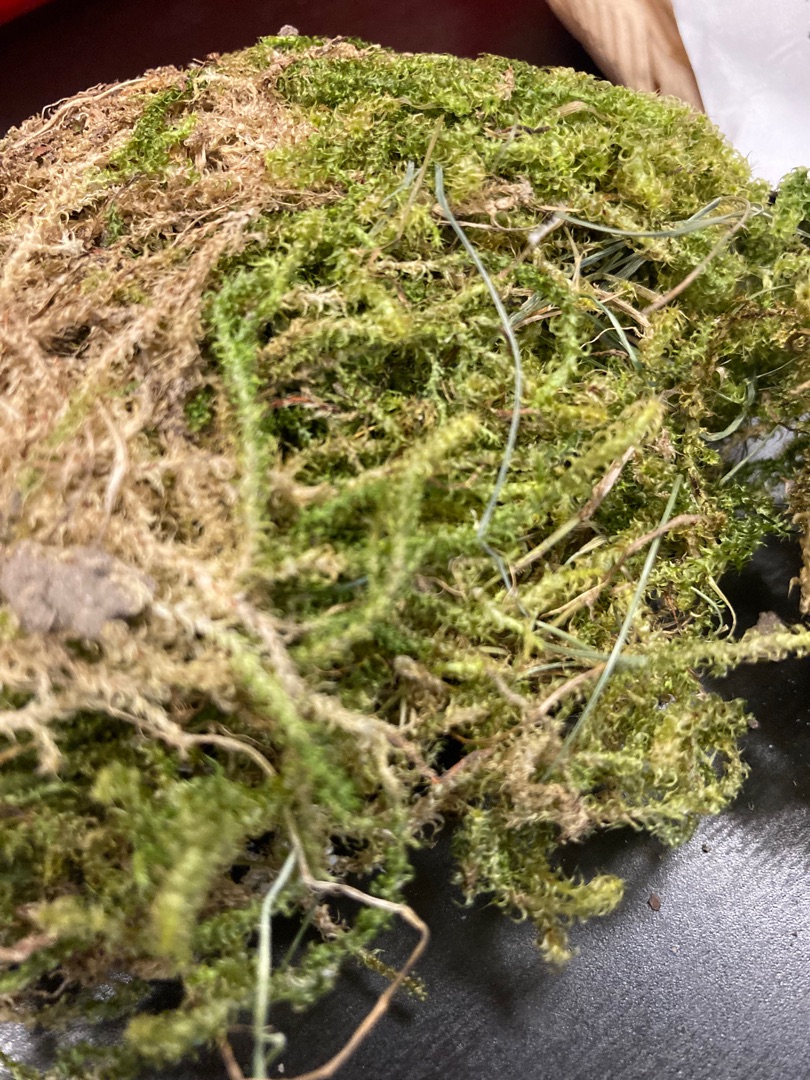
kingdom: Plantae
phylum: Bryophyta
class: Bryopsida
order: Hypnales
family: Hylocomiaceae
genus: Rhytidiadelphus
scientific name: Rhytidiadelphus squarrosus
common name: Plæne-kransemos
